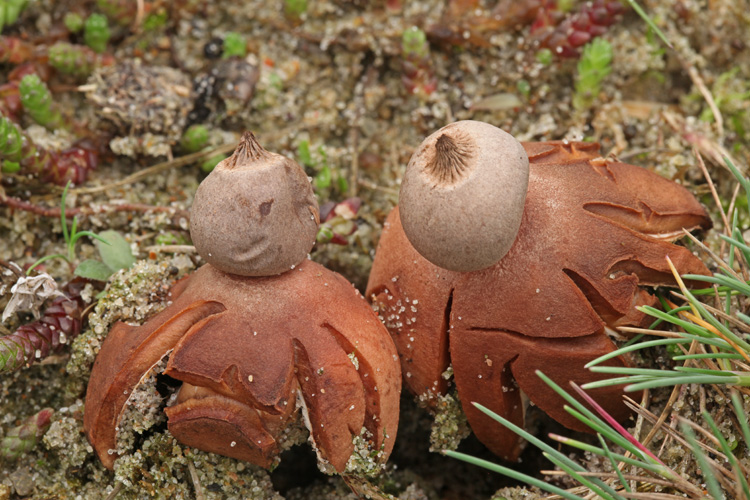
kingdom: Fungi
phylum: Basidiomycota
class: Agaricomycetes
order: Geastrales
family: Geastraceae
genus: Geastrum
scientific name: Geastrum striatum
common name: dværg-stjernebold
